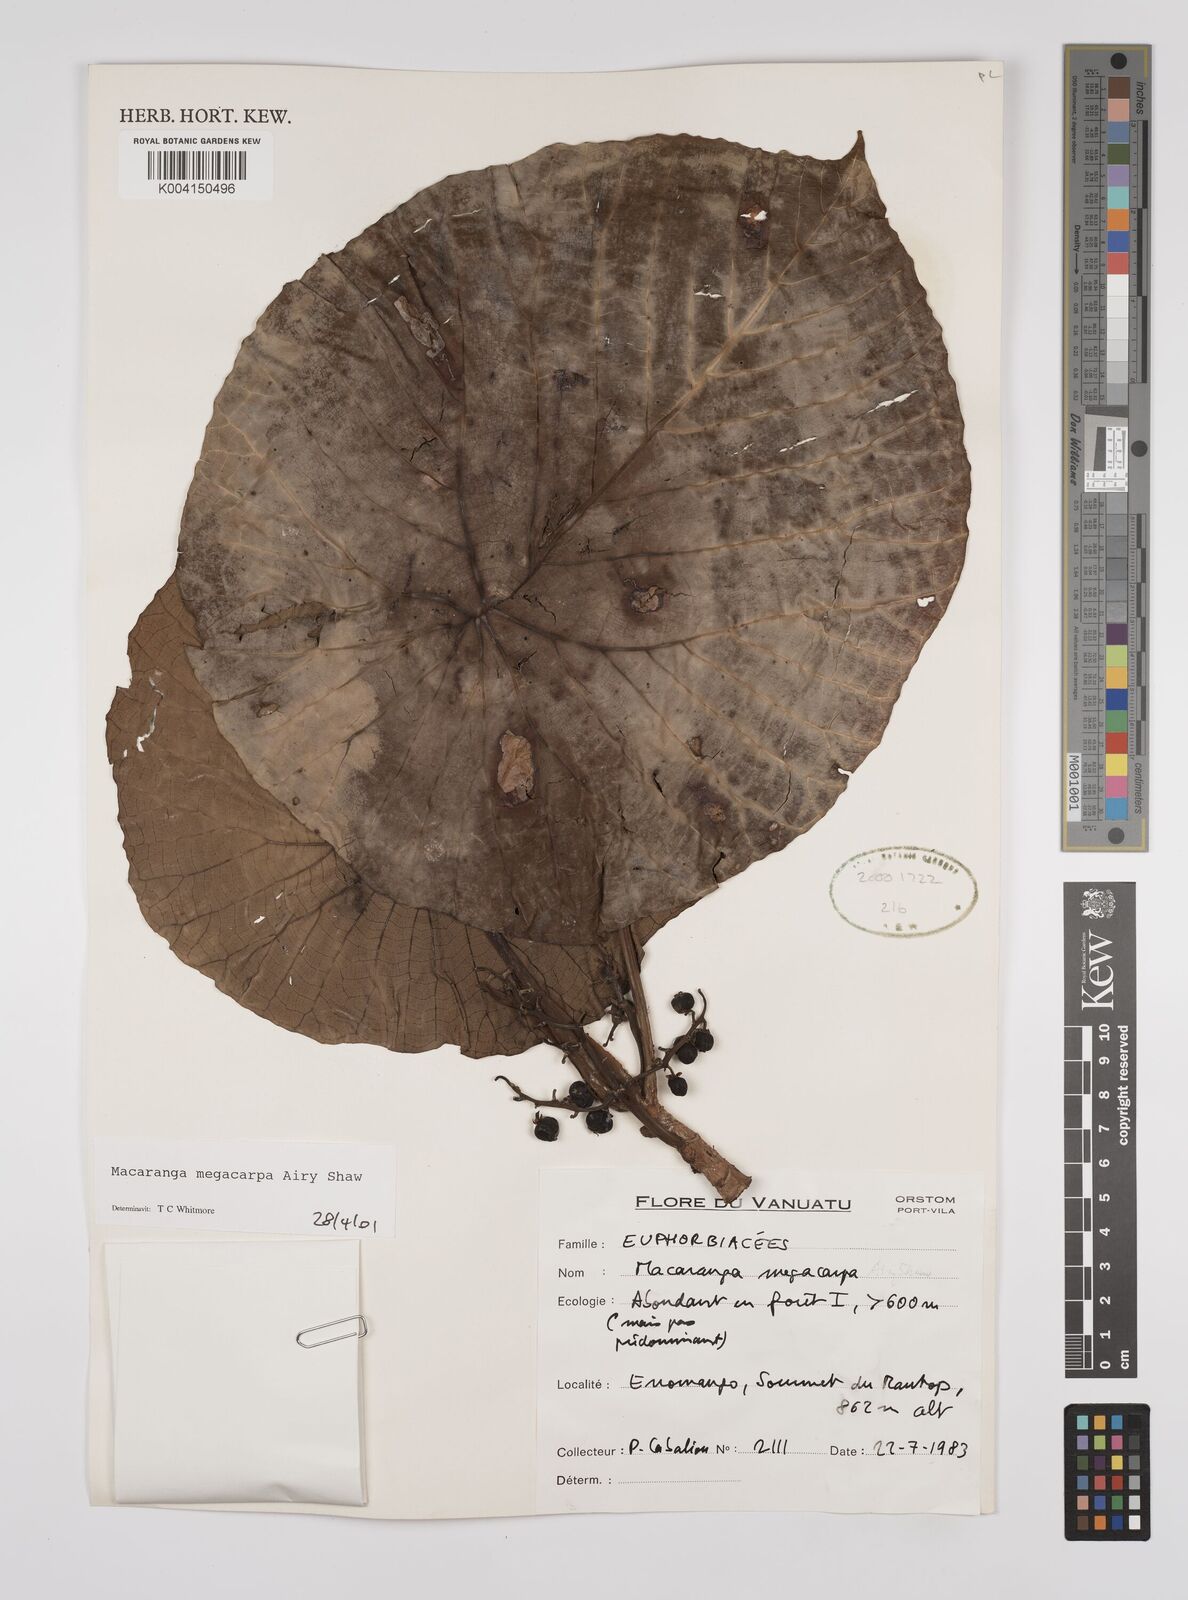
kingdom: Plantae
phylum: Tracheophyta
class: Magnoliopsida
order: Malpighiales
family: Euphorbiaceae
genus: Macaranga
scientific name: Macaranga megacarpa
